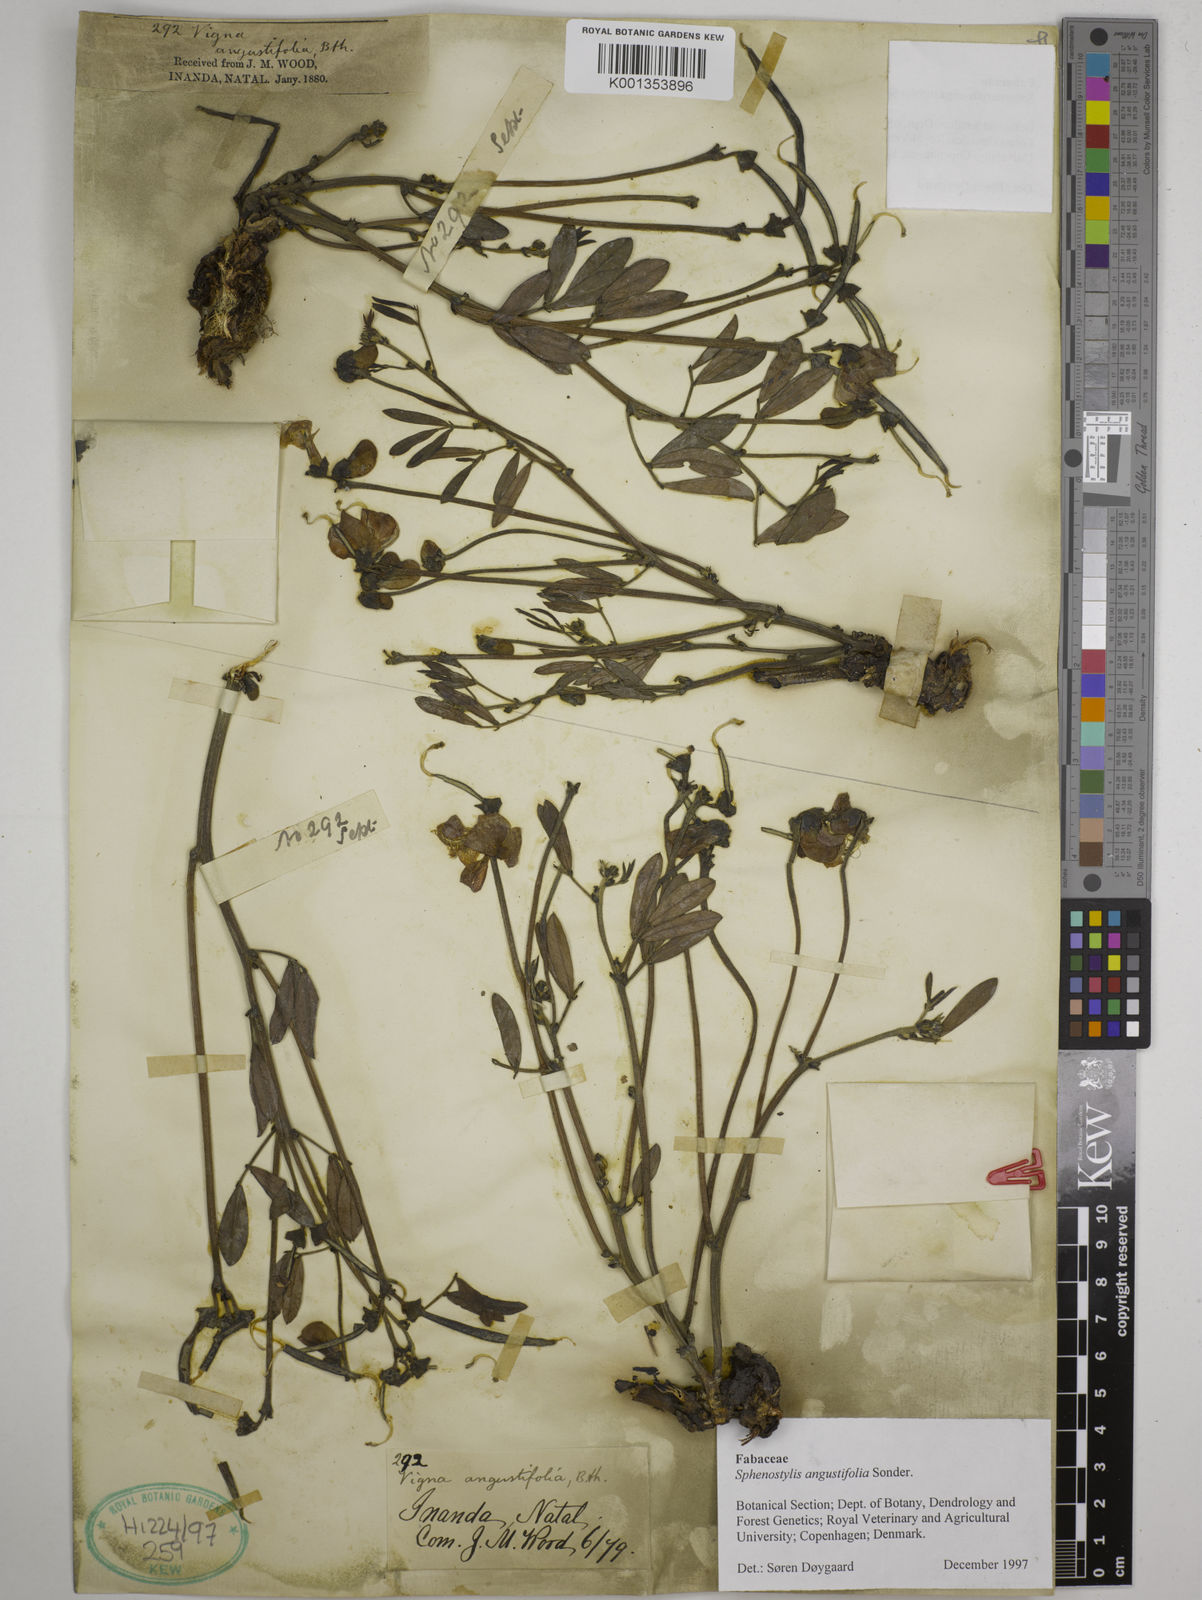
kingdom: Plantae
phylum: Tracheophyta
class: Magnoliopsida
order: Fabales
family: Fabaceae
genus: Sphenostylis
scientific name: Sphenostylis angustifolia
